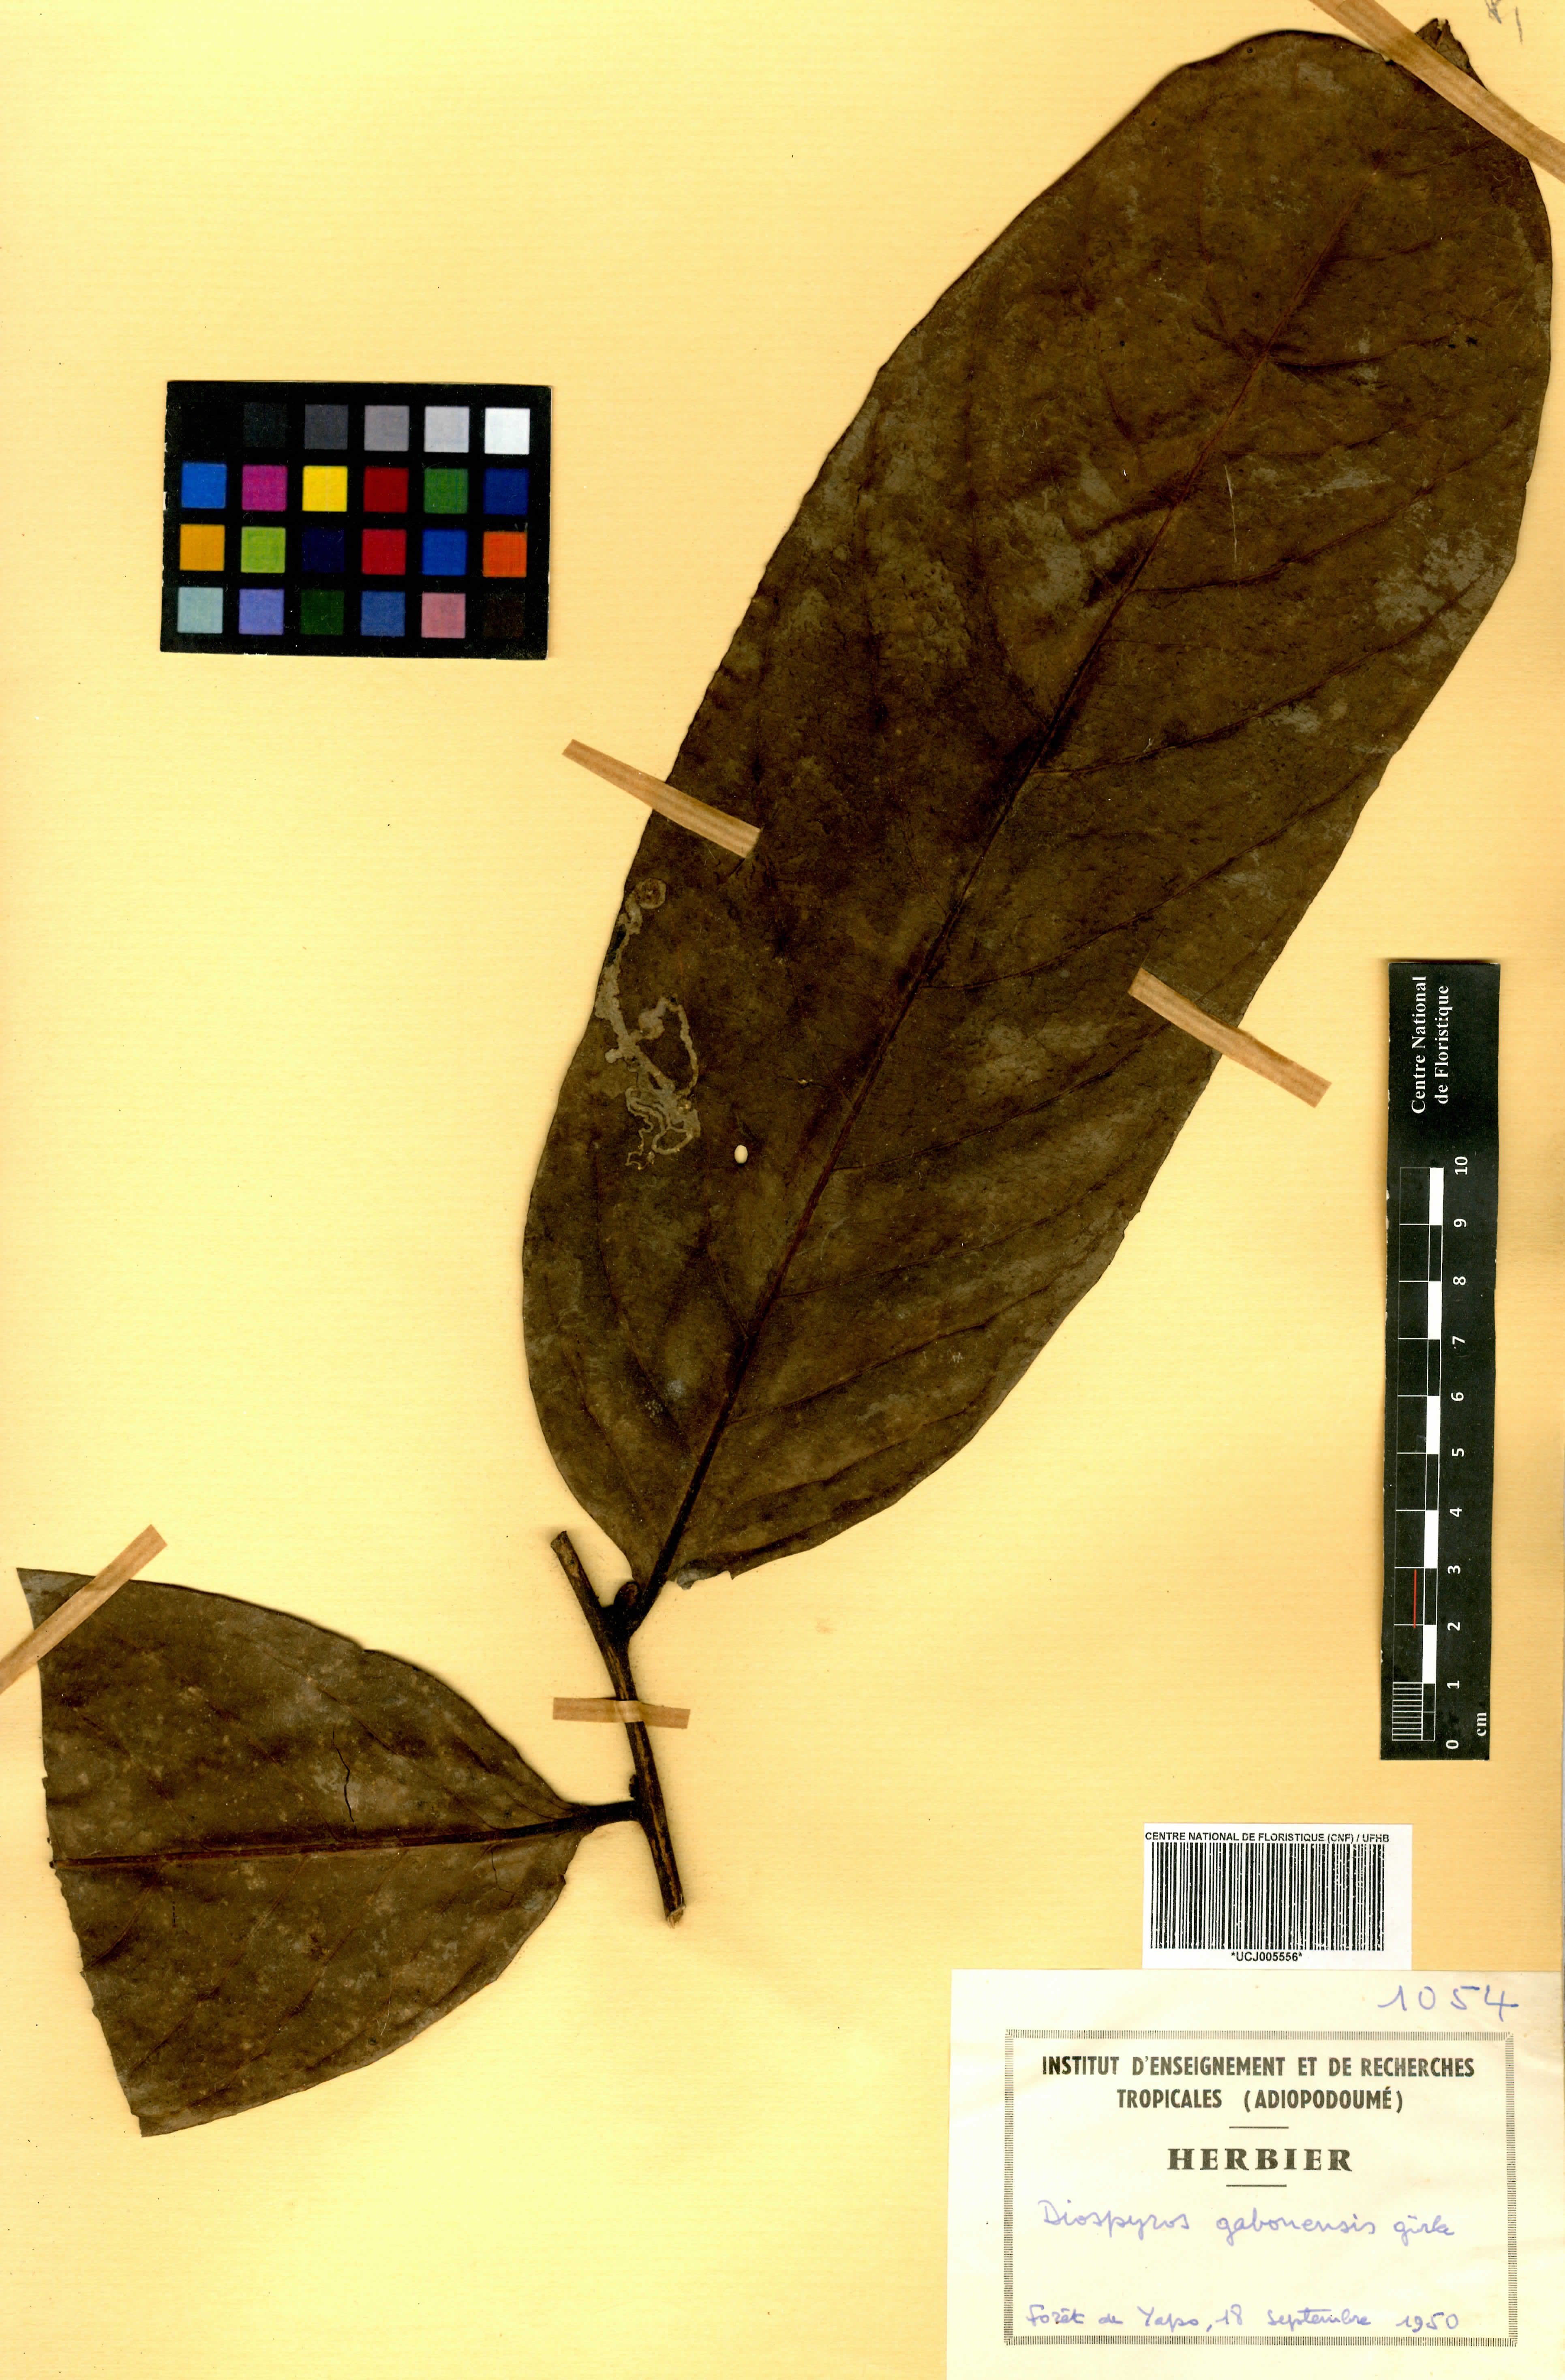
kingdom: Plantae
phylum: Tracheophyta
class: Magnoliopsida
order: Ericales
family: Ebenaceae
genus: Diospyros
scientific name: Diospyros gabunensis
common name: Flint bark tree
